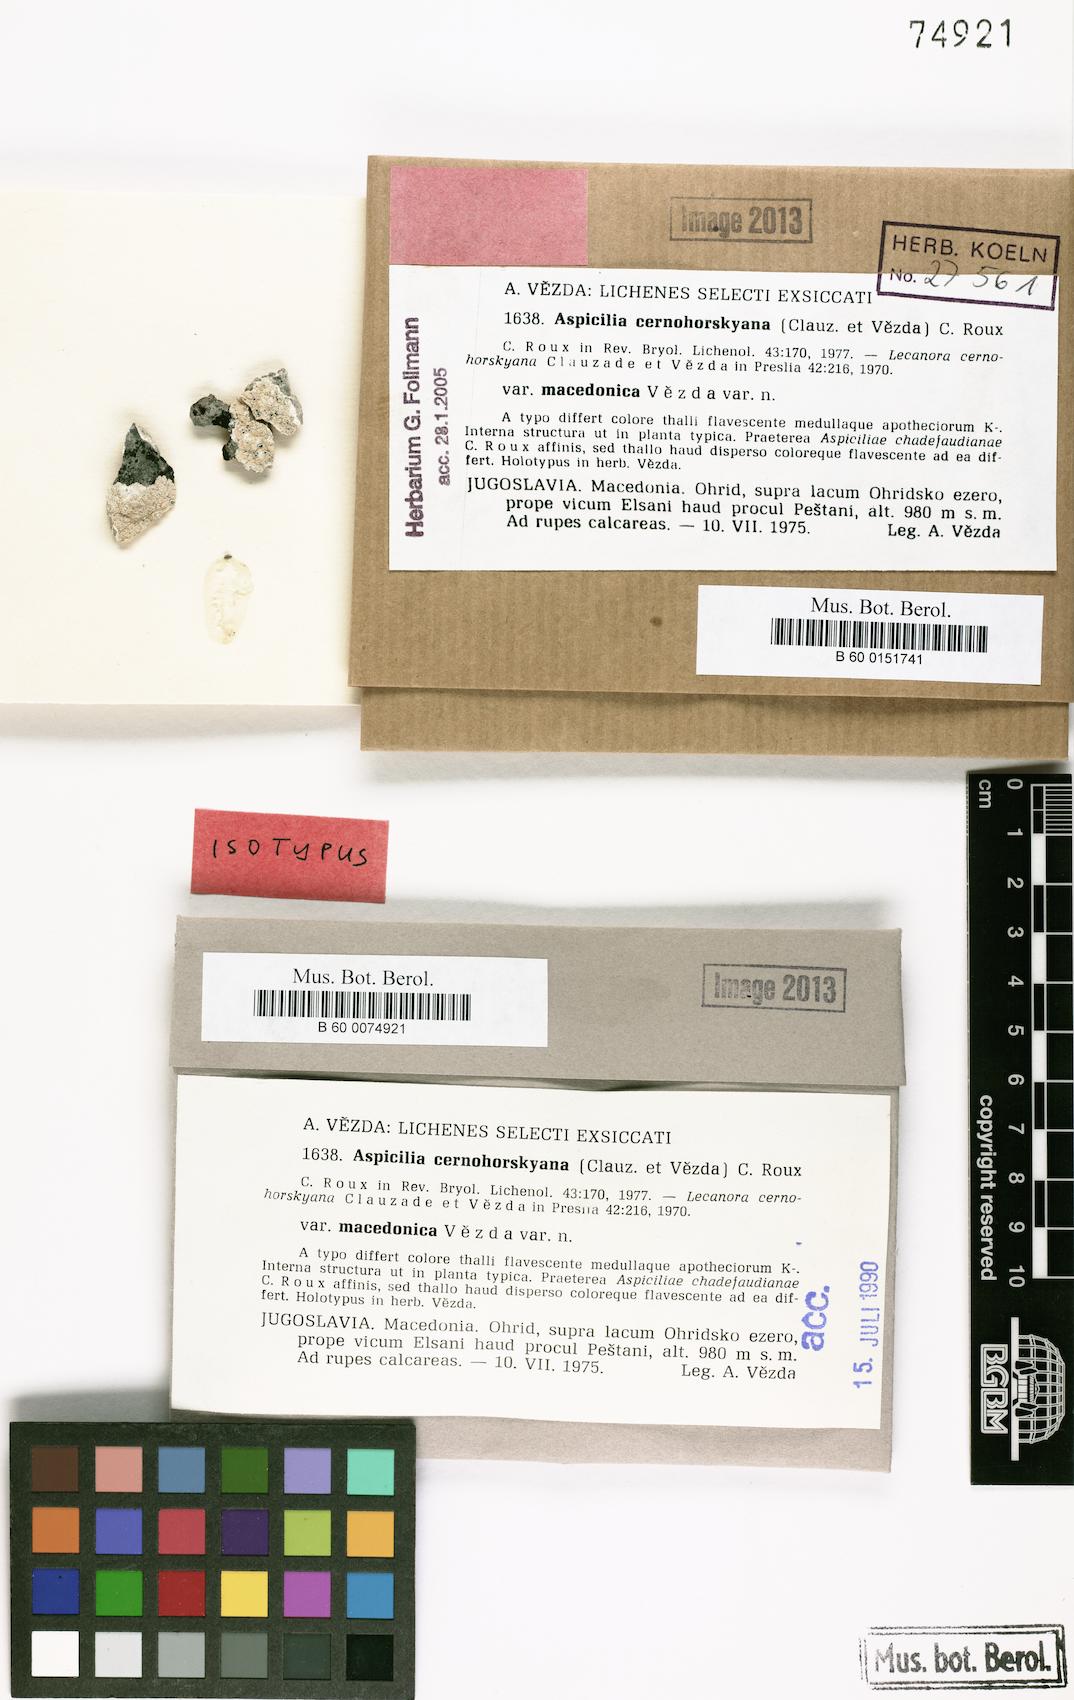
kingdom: Fungi
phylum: Ascomycota
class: Lecanoromycetes
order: Pertusariales
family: Megasporaceae
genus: Lobothallia
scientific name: Lobothallia chadefaudiana
